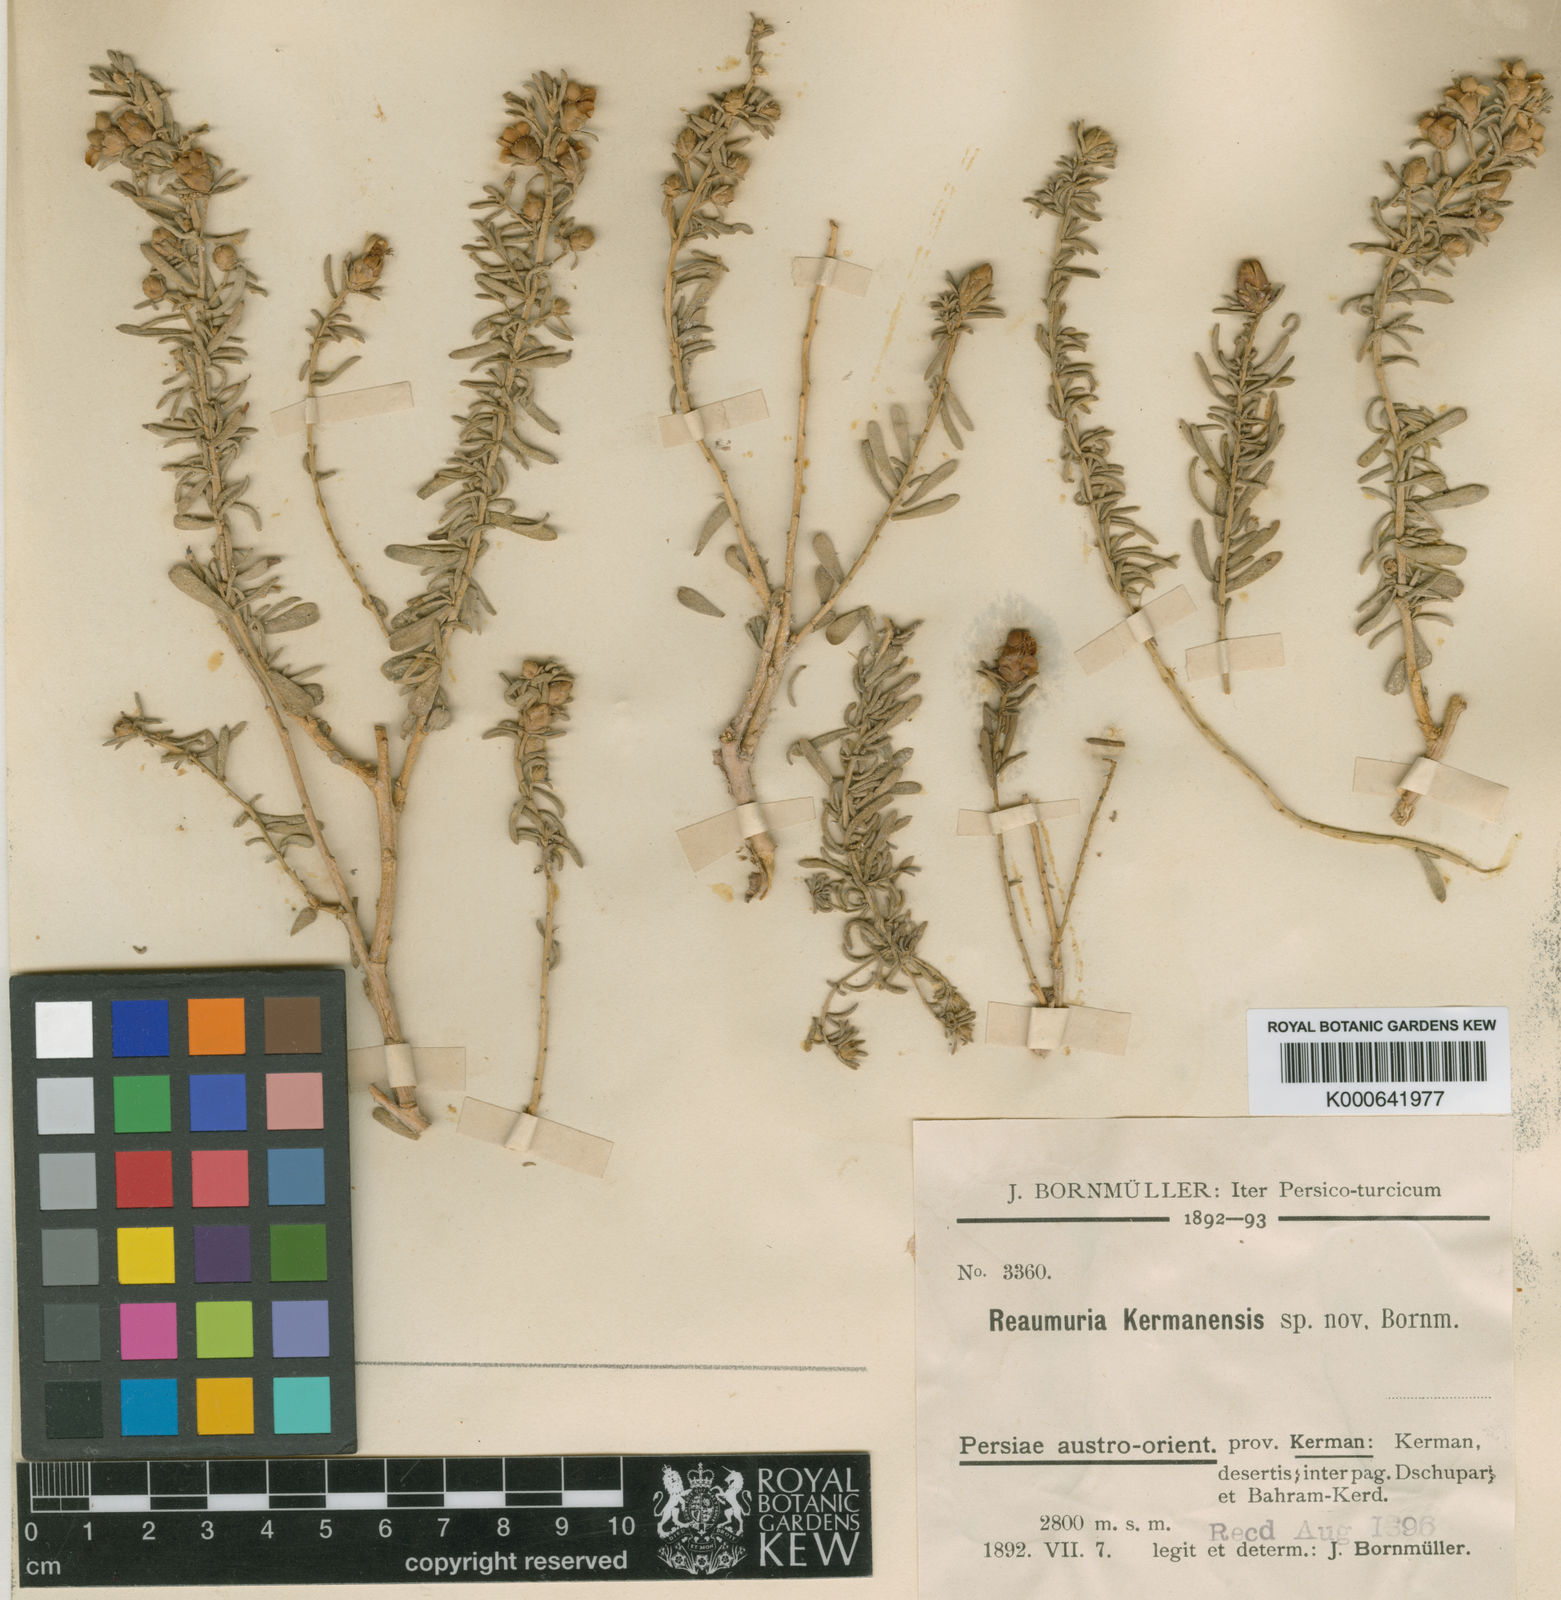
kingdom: Plantae
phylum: Tracheophyta
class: Magnoliopsida
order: Caryophyllales
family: Tamaricaceae
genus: Reaumuria
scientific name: Reaumuria kermanensis
